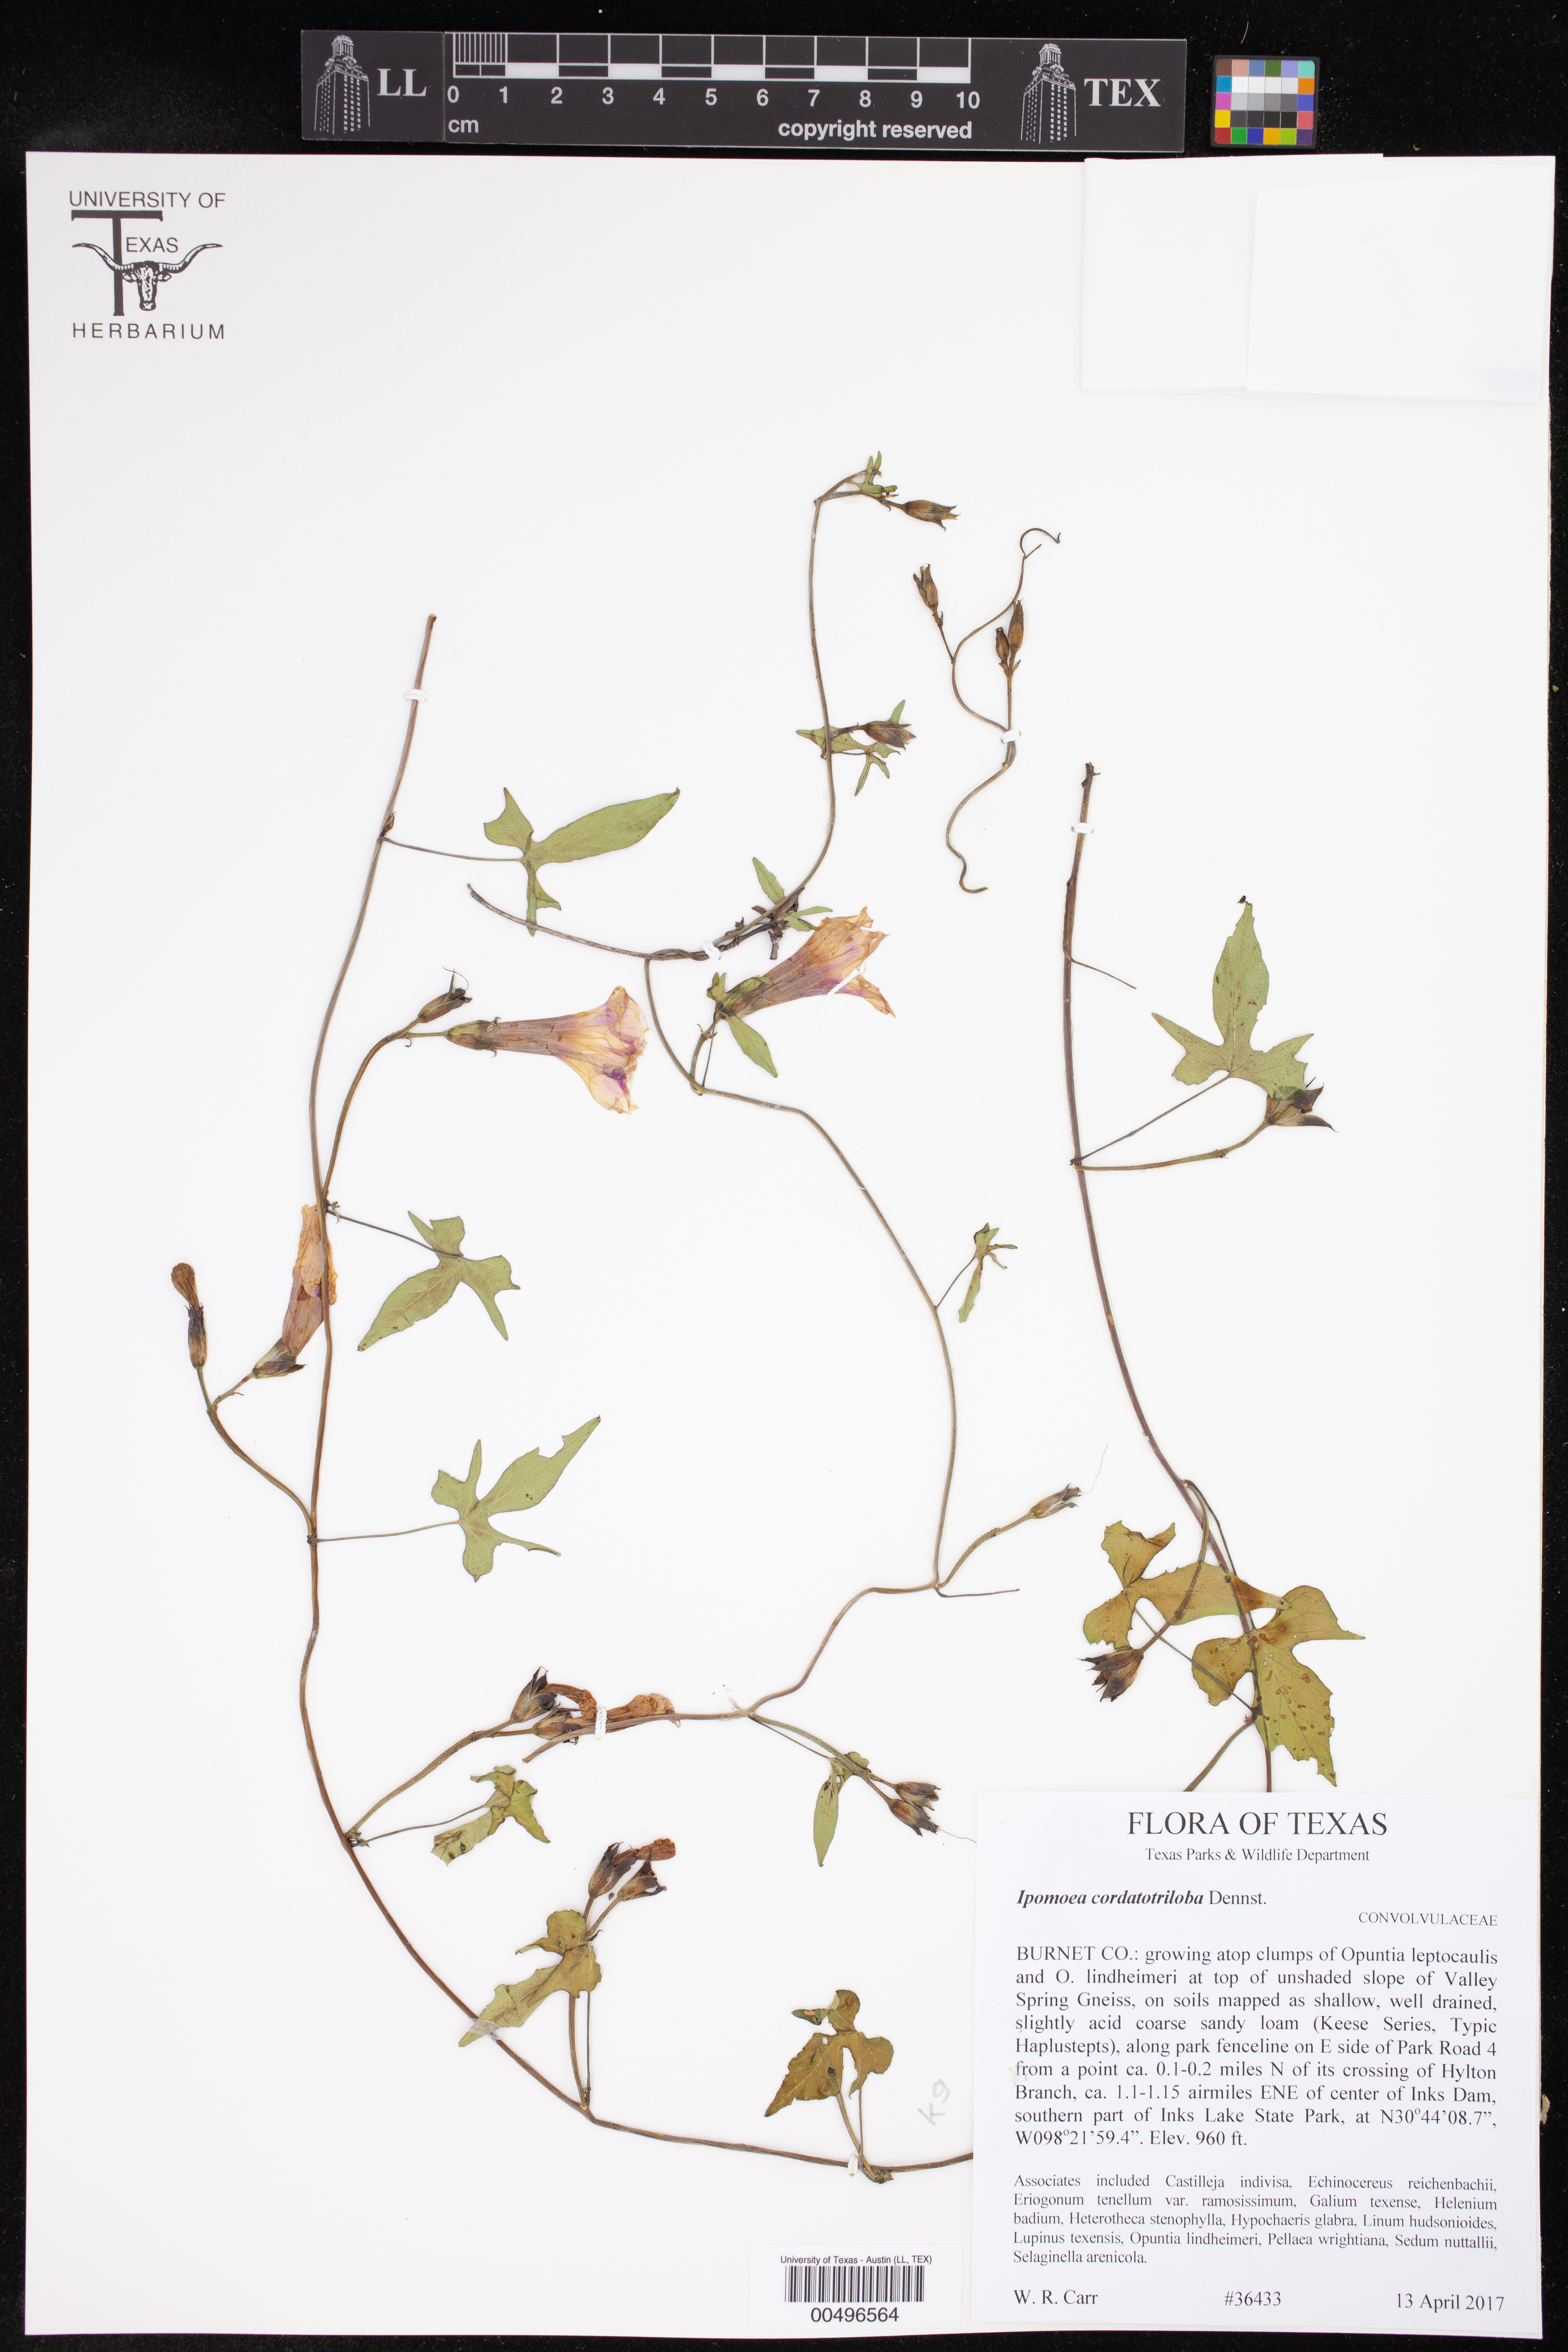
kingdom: Plantae
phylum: Tracheophyta
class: Magnoliopsida
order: Solanales
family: Convolvulaceae
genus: Ipomoea
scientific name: Ipomoea cordatotriloba
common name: Cotton morning glory
